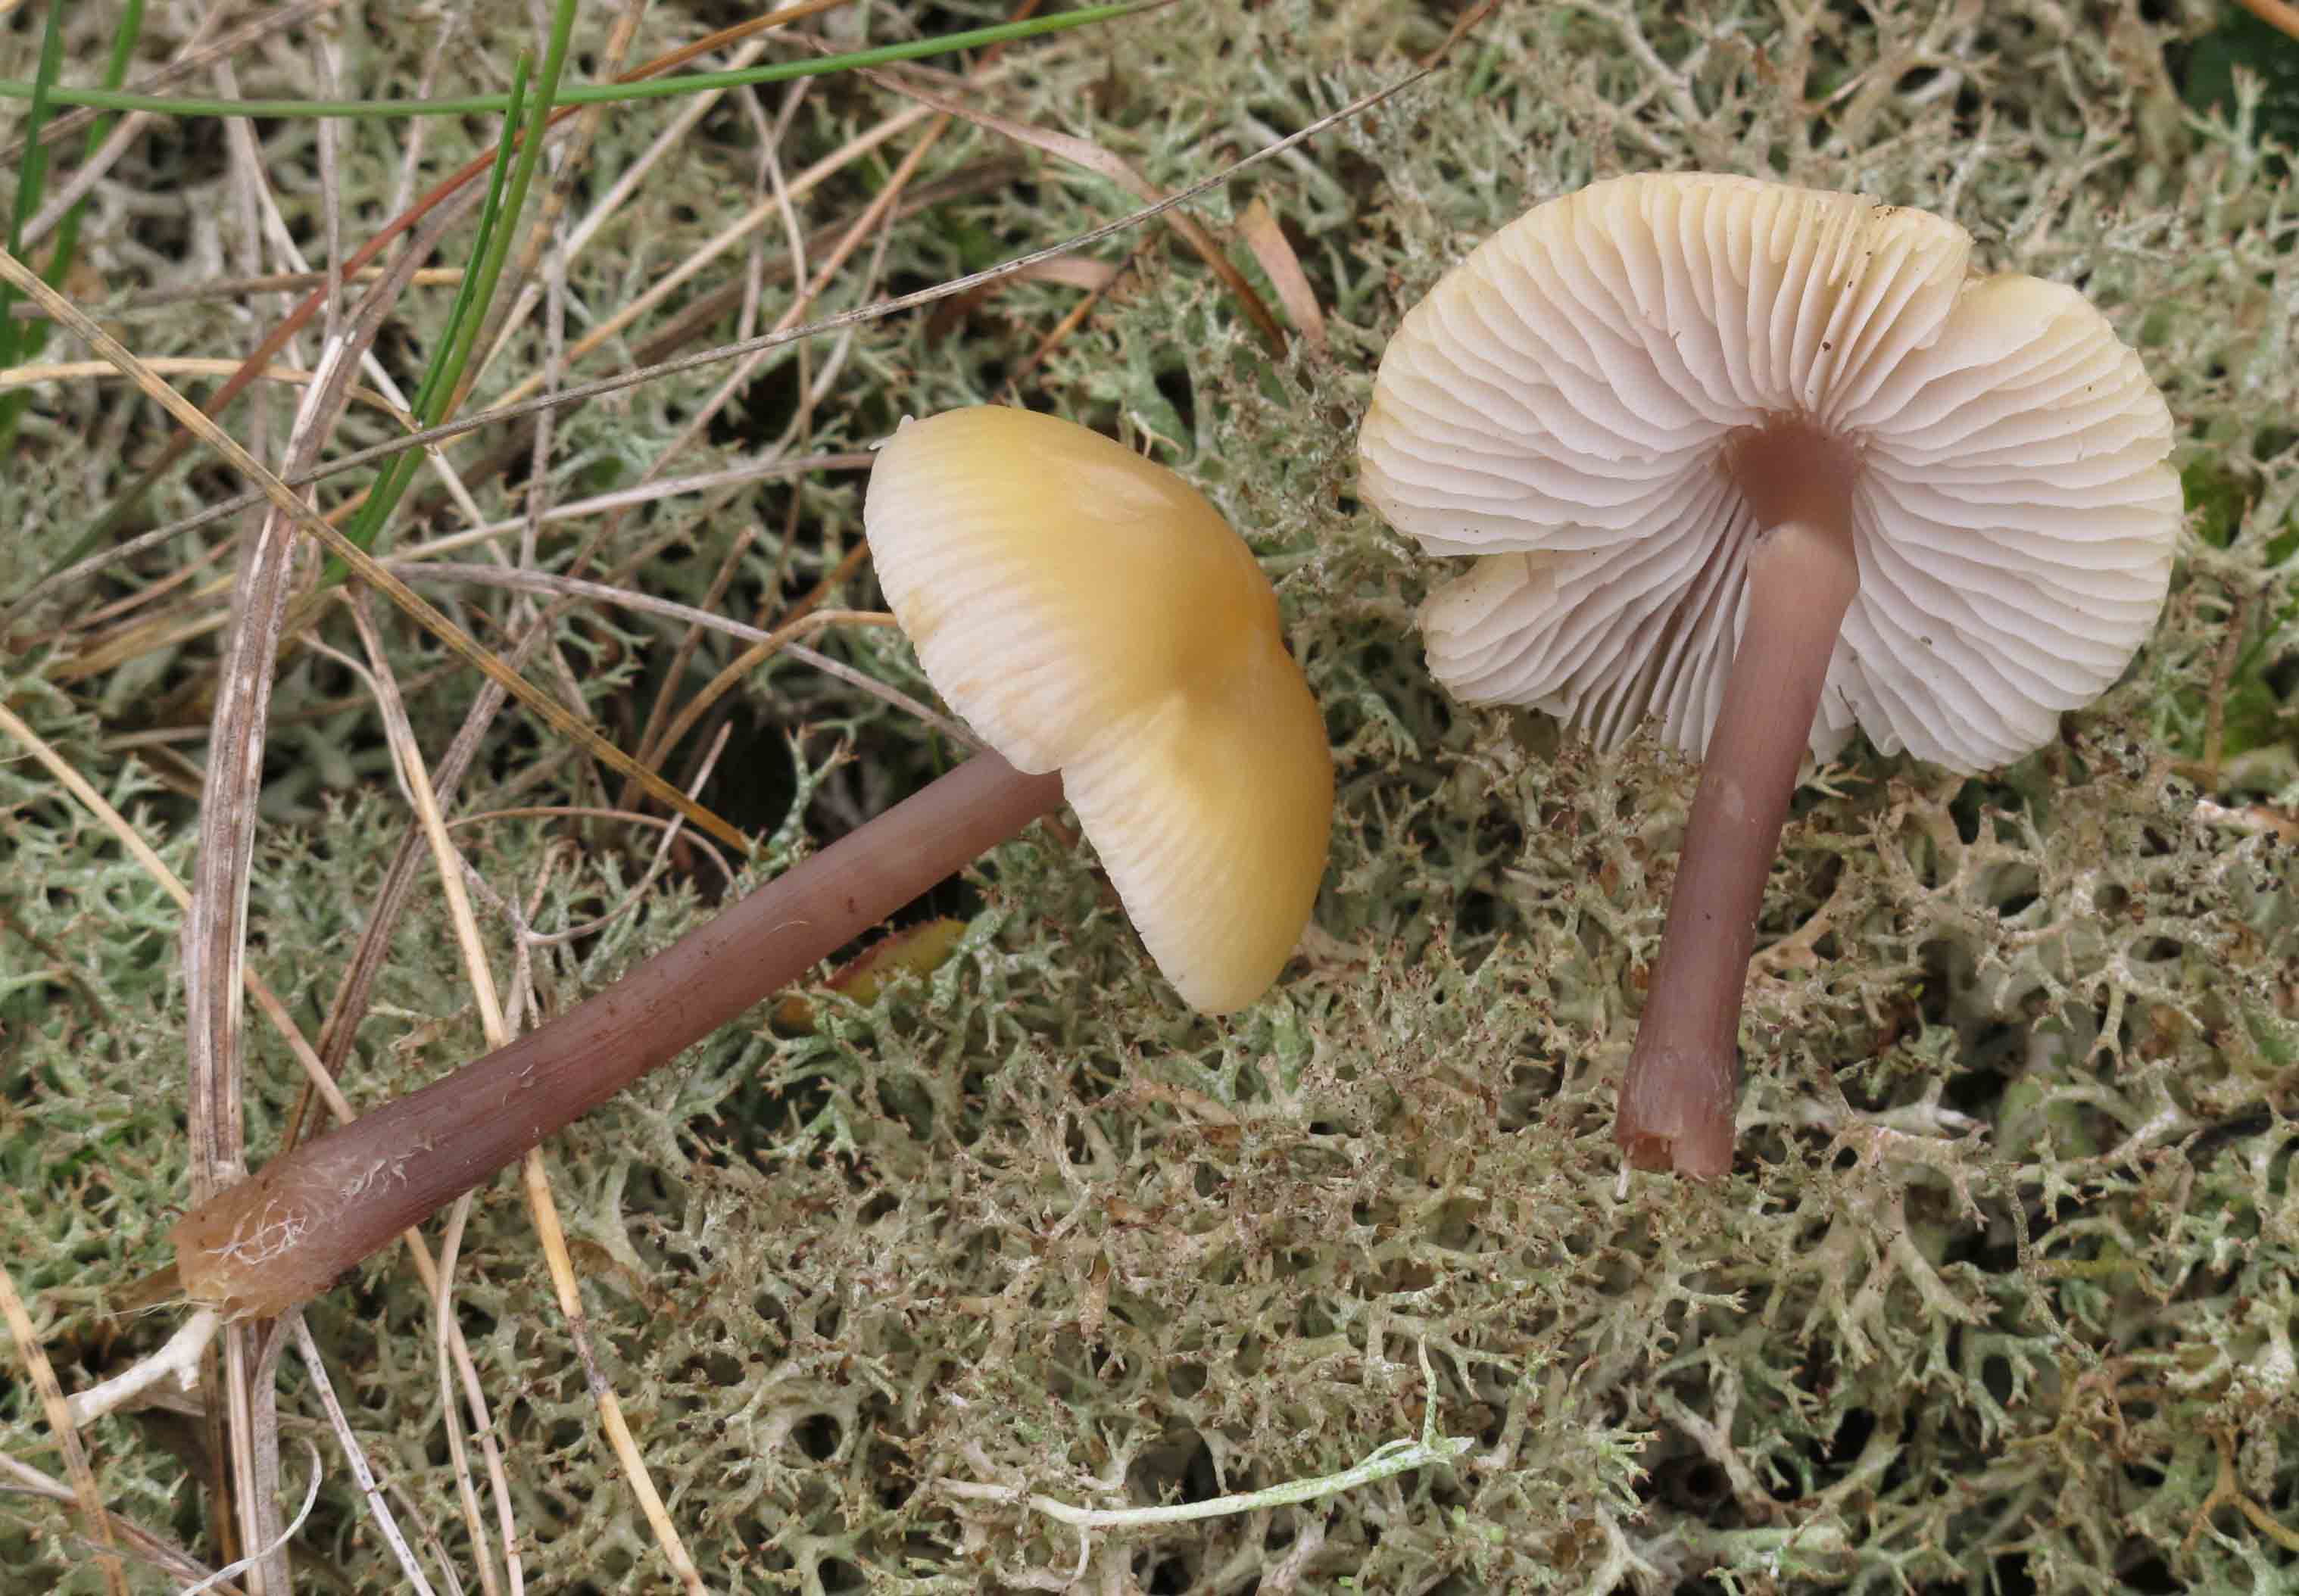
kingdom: Fungi
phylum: Basidiomycota
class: Agaricomycetes
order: Agaricales
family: Mycenaceae
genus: Mycena
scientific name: Mycena luteovariegata
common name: lillagul huesvamp
